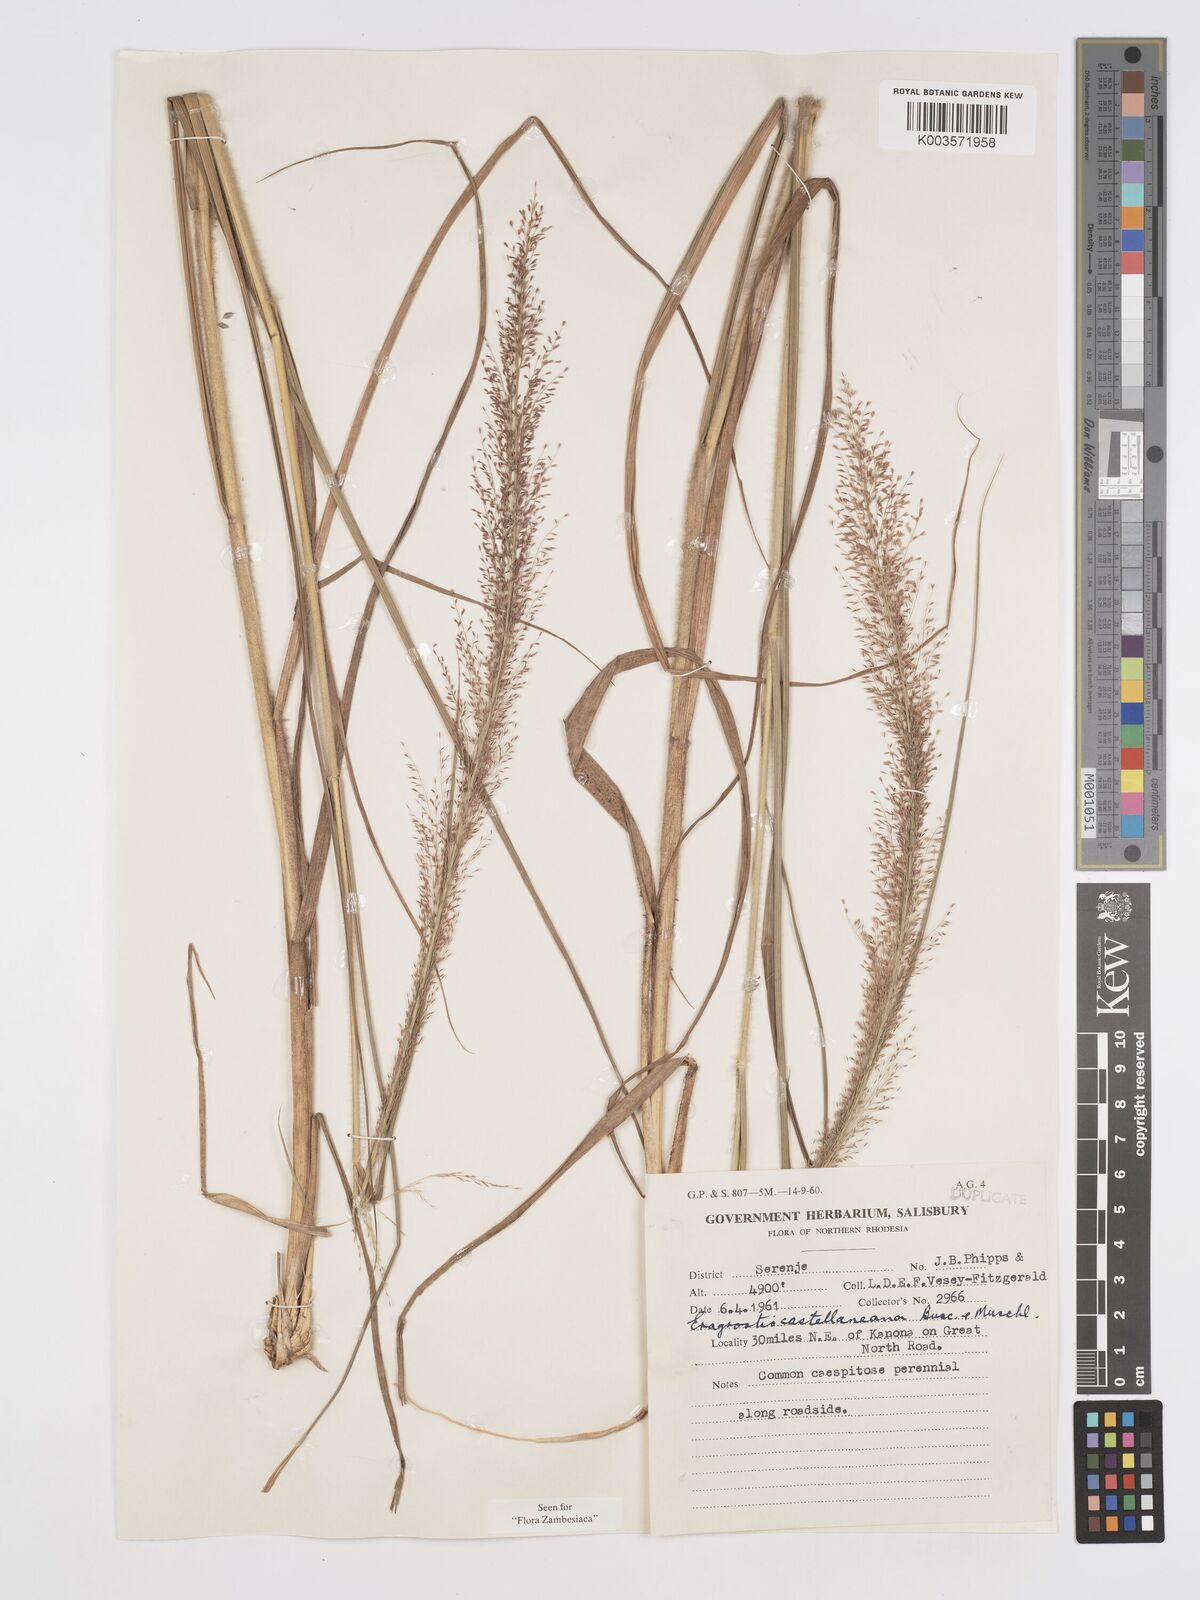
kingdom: Plantae
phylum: Tracheophyta
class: Liliopsida
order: Poales
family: Poaceae
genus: Eragrostis
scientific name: Eragrostis castellaneana
